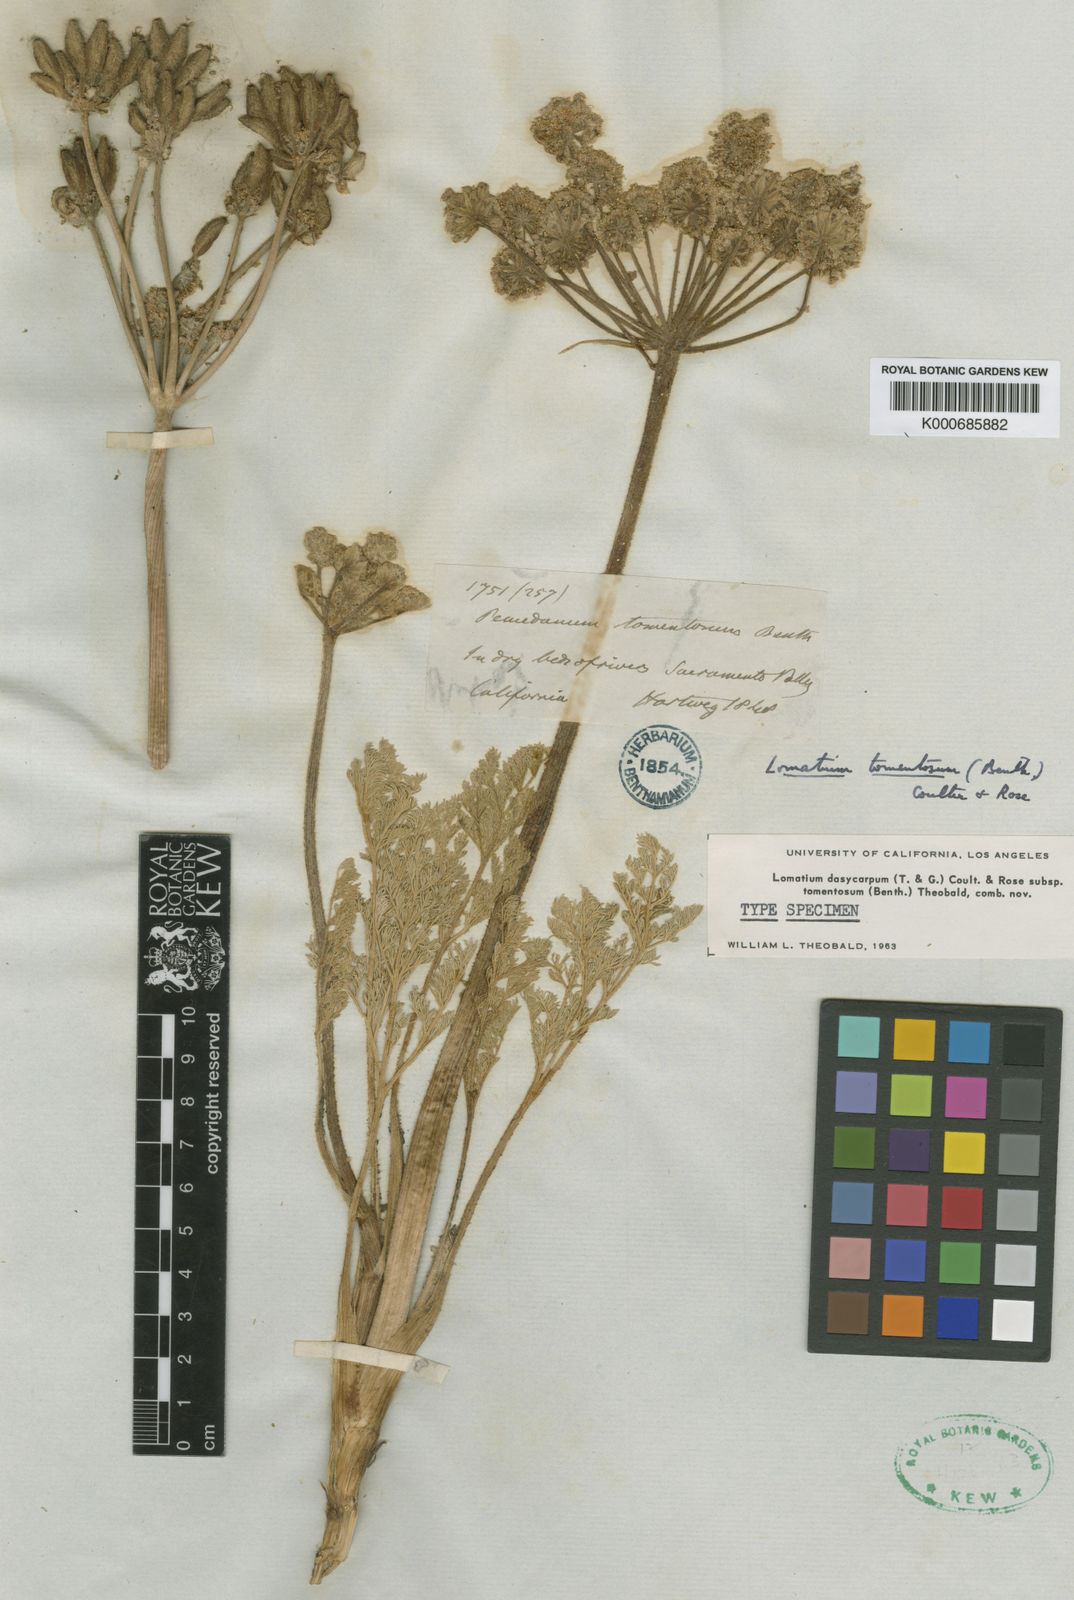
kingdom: Plantae
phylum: Tracheophyta
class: Magnoliopsida
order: Apiales
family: Apiaceae
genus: Lomatium
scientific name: Lomatium dasycarpum
